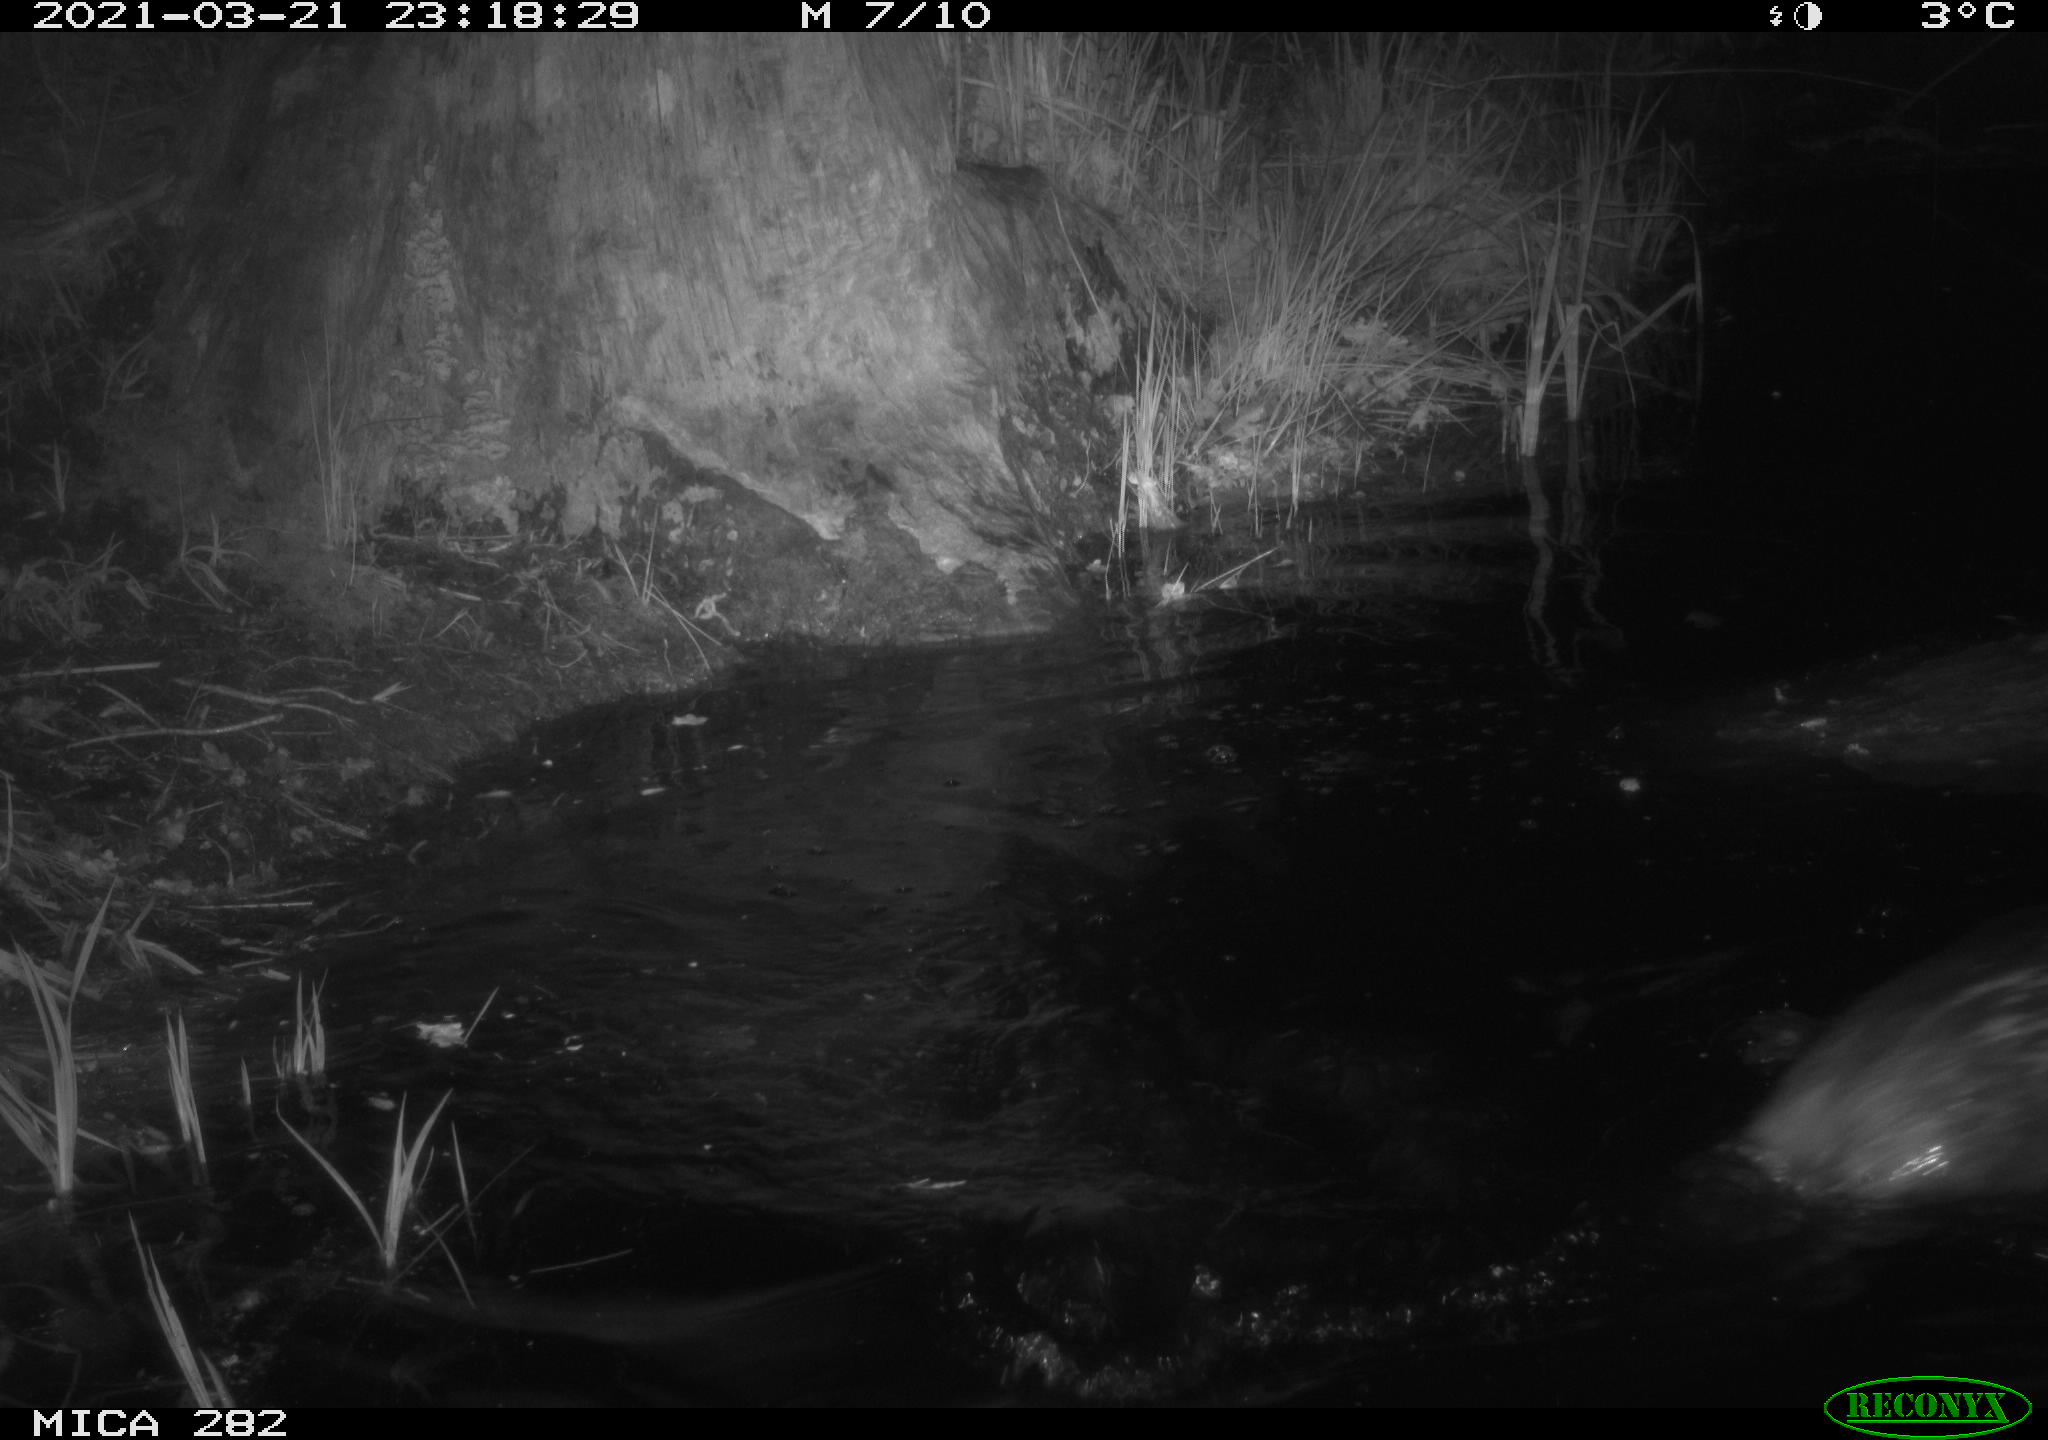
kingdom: Animalia
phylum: Chordata
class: Mammalia
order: Rodentia
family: Castoridae
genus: Castor
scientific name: Castor fiber
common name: Eurasian beaver
